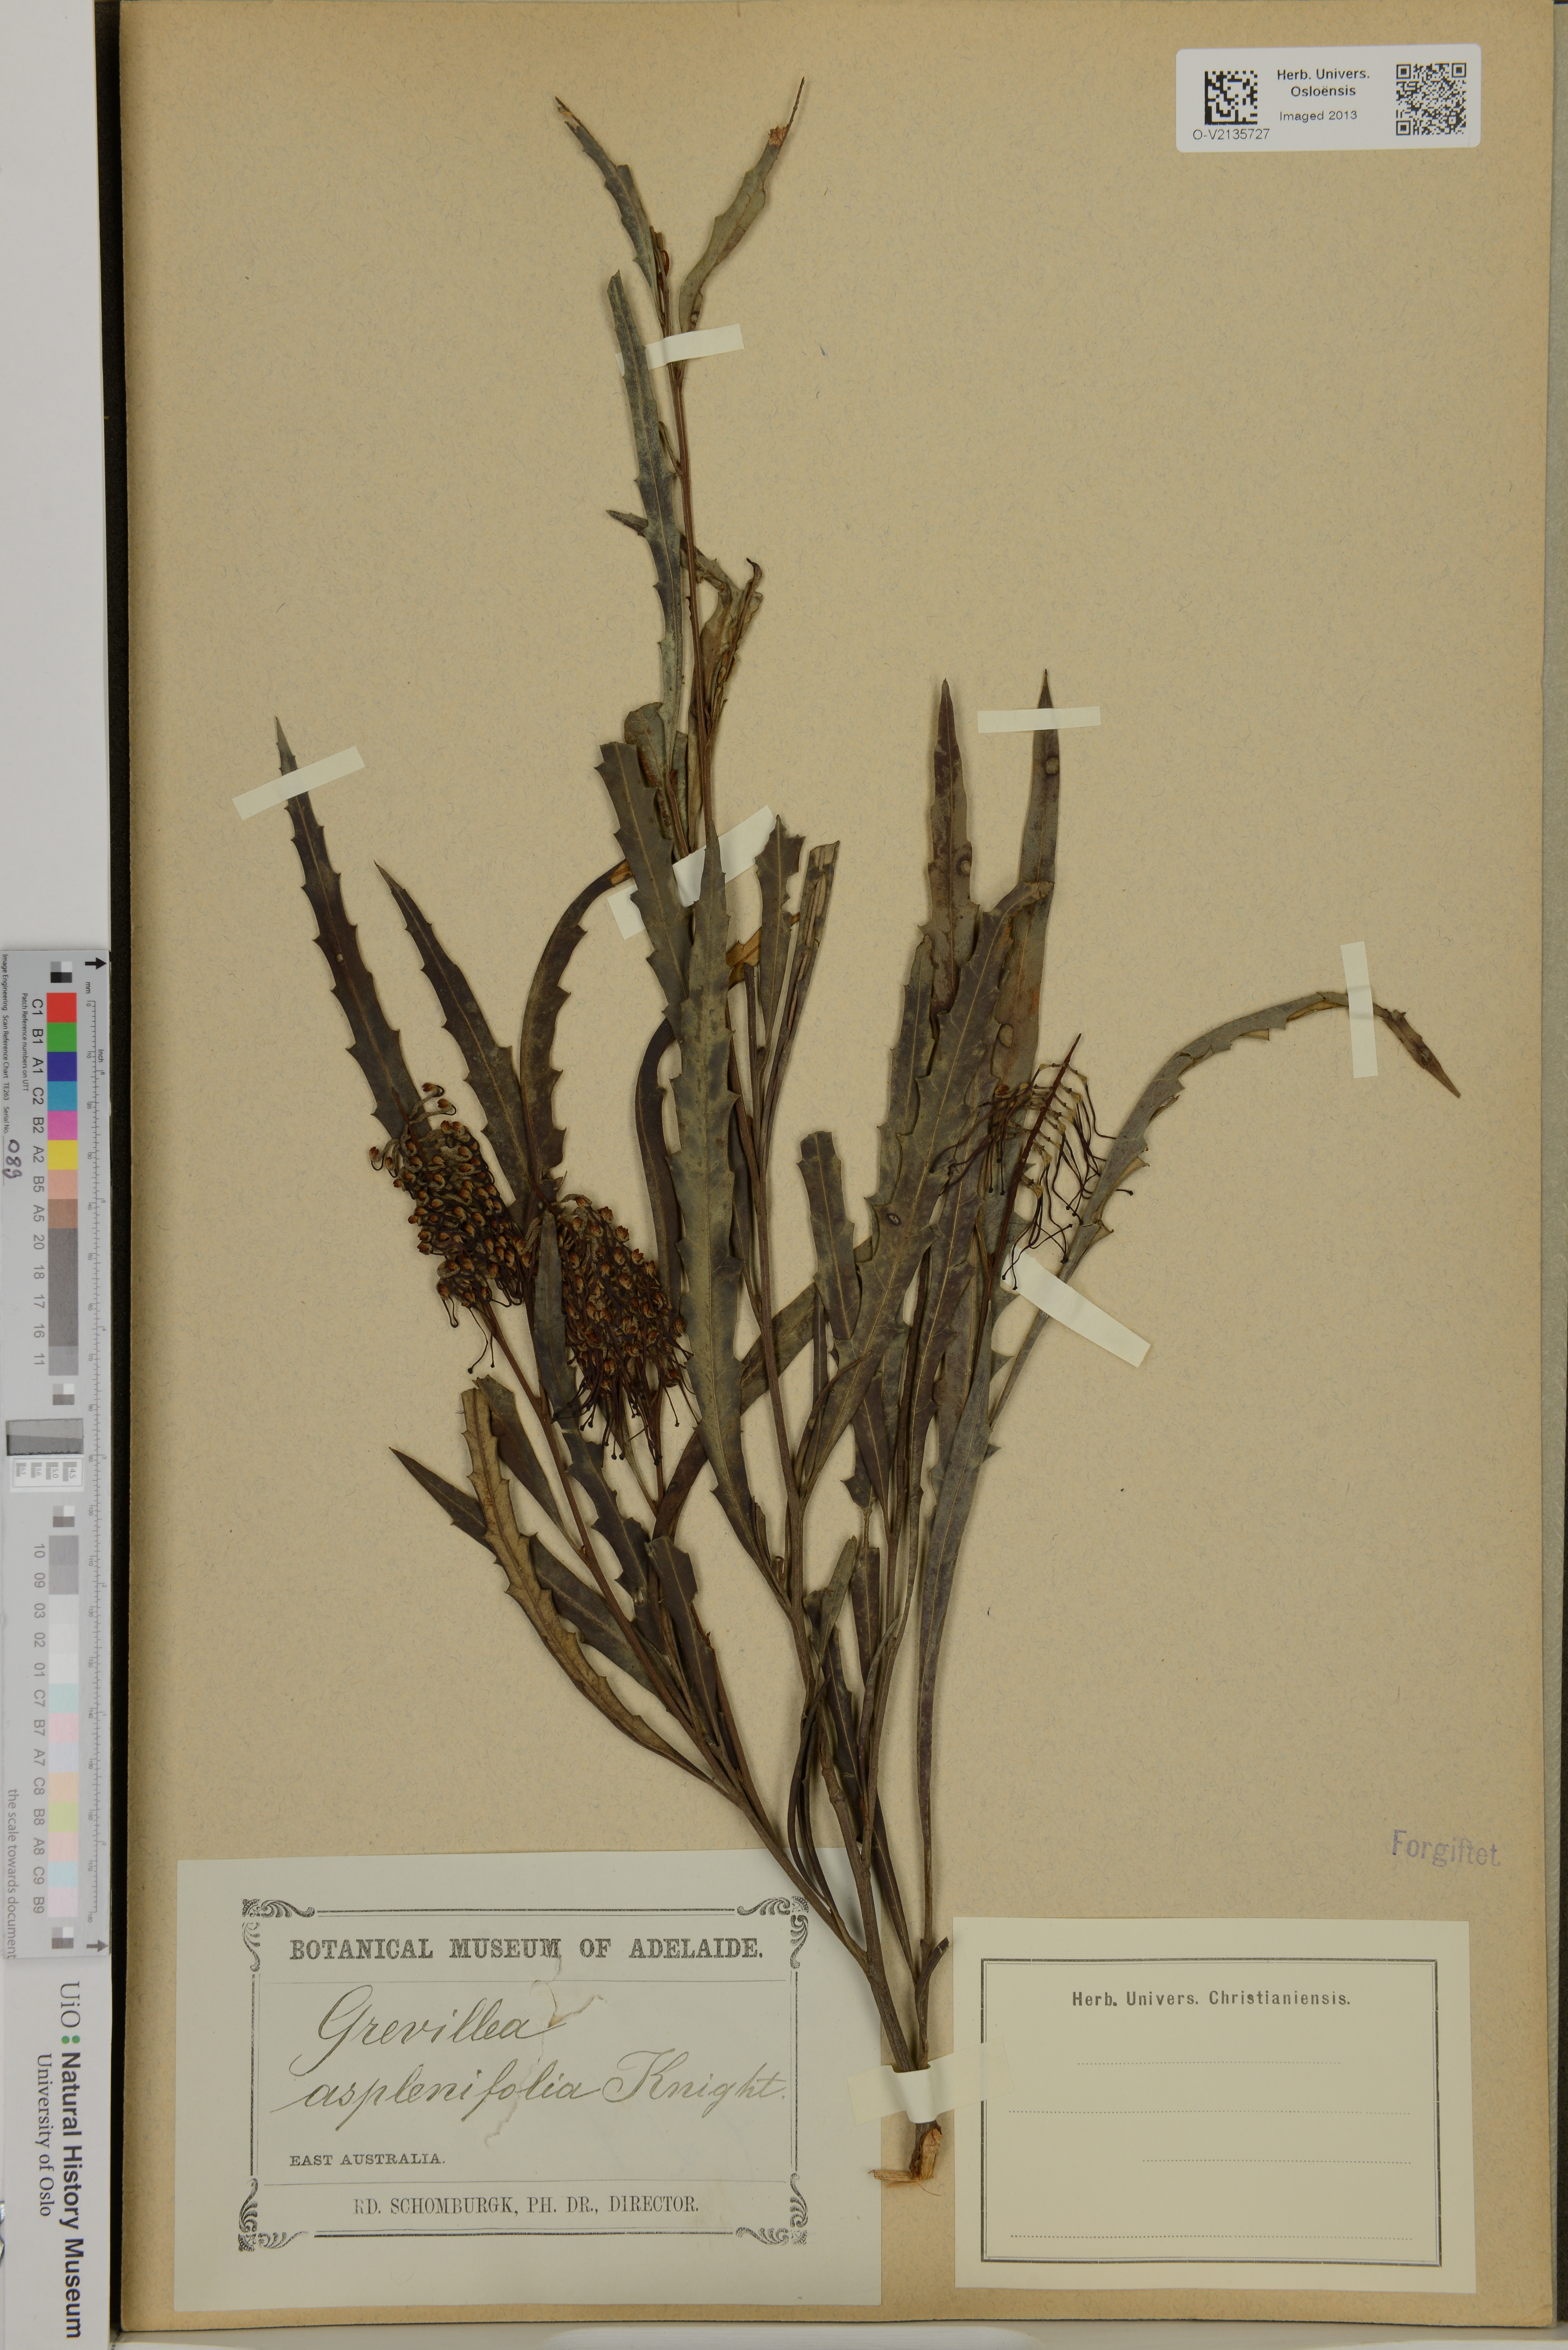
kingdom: Plantae
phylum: Tracheophyta
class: Magnoliopsida
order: Proteales
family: Proteaceae
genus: Grevillea
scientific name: Grevillea aspleniifolia
